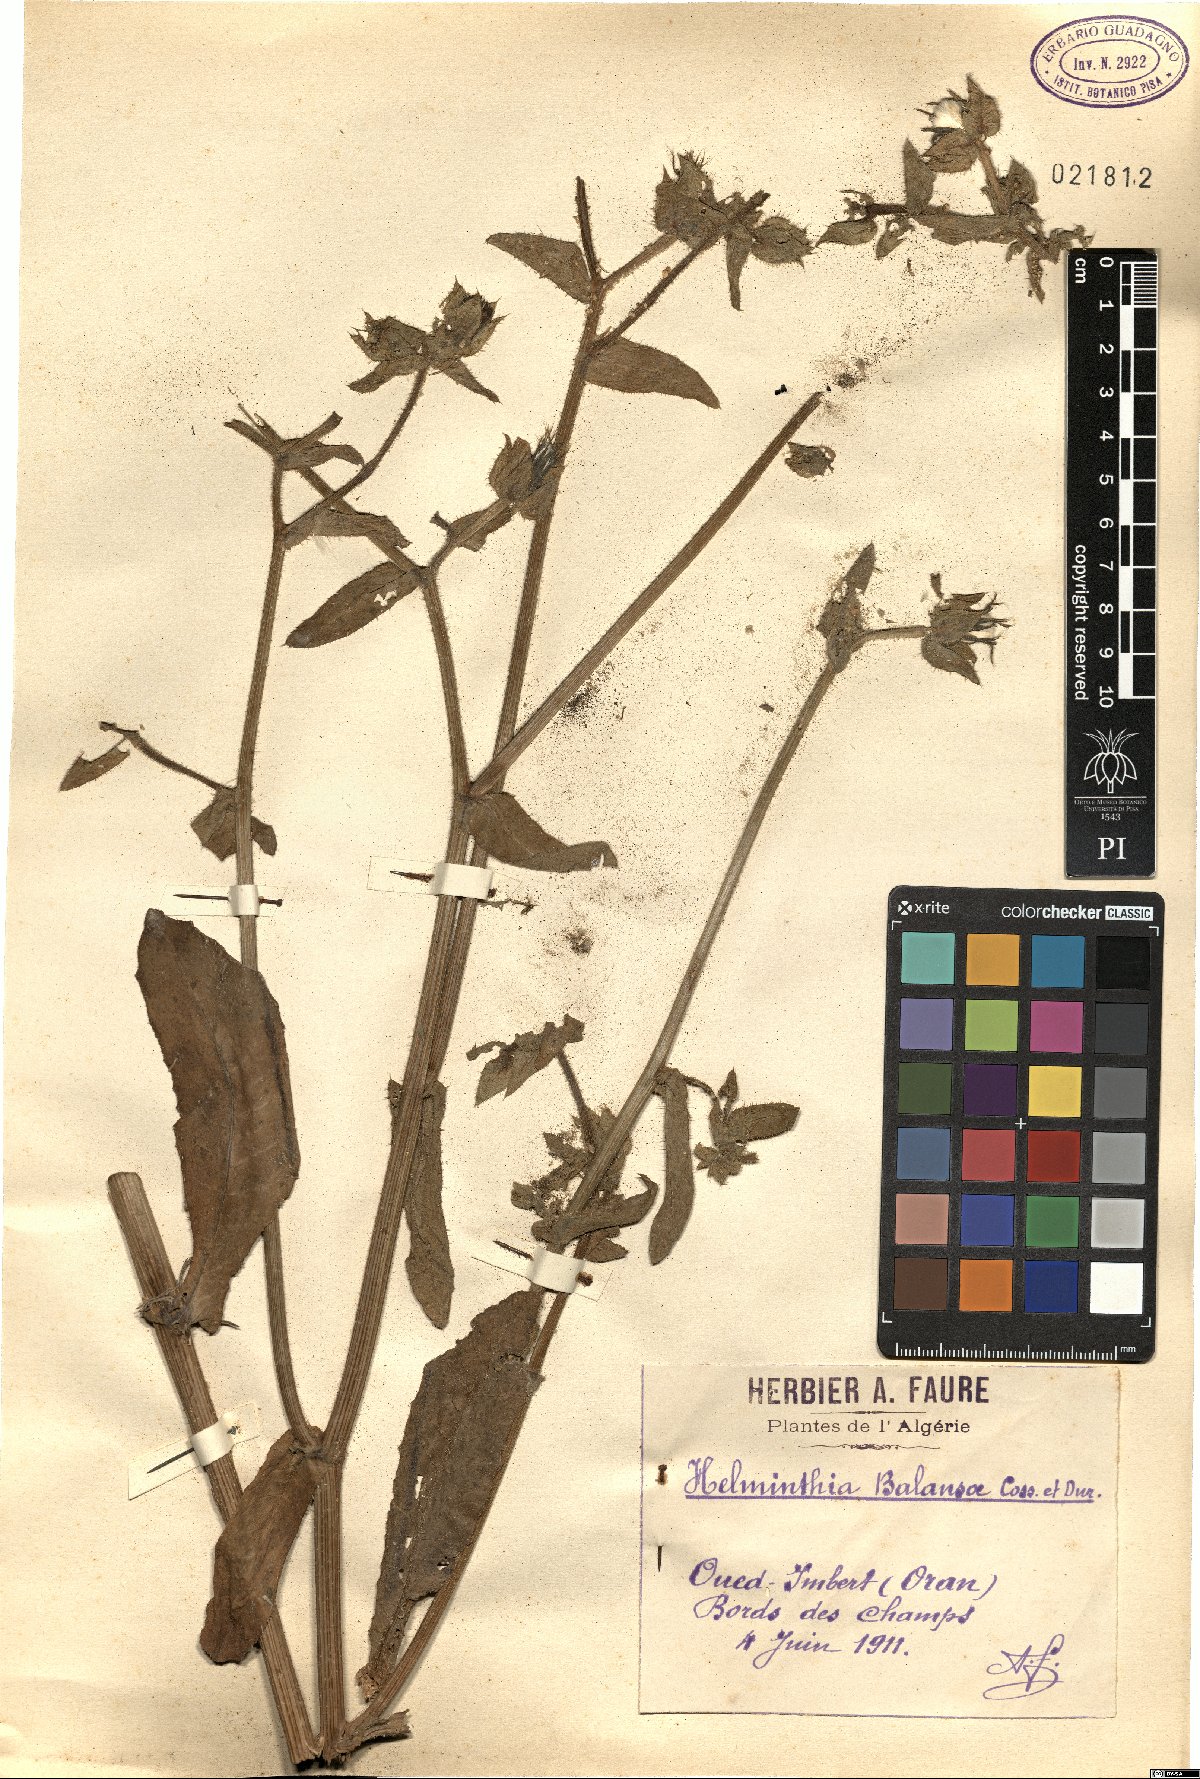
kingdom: Plantae
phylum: Tracheophyta
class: Magnoliopsida
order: Asterales
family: Asteraceae
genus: Helminthotheca
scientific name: Helminthotheca balansae
